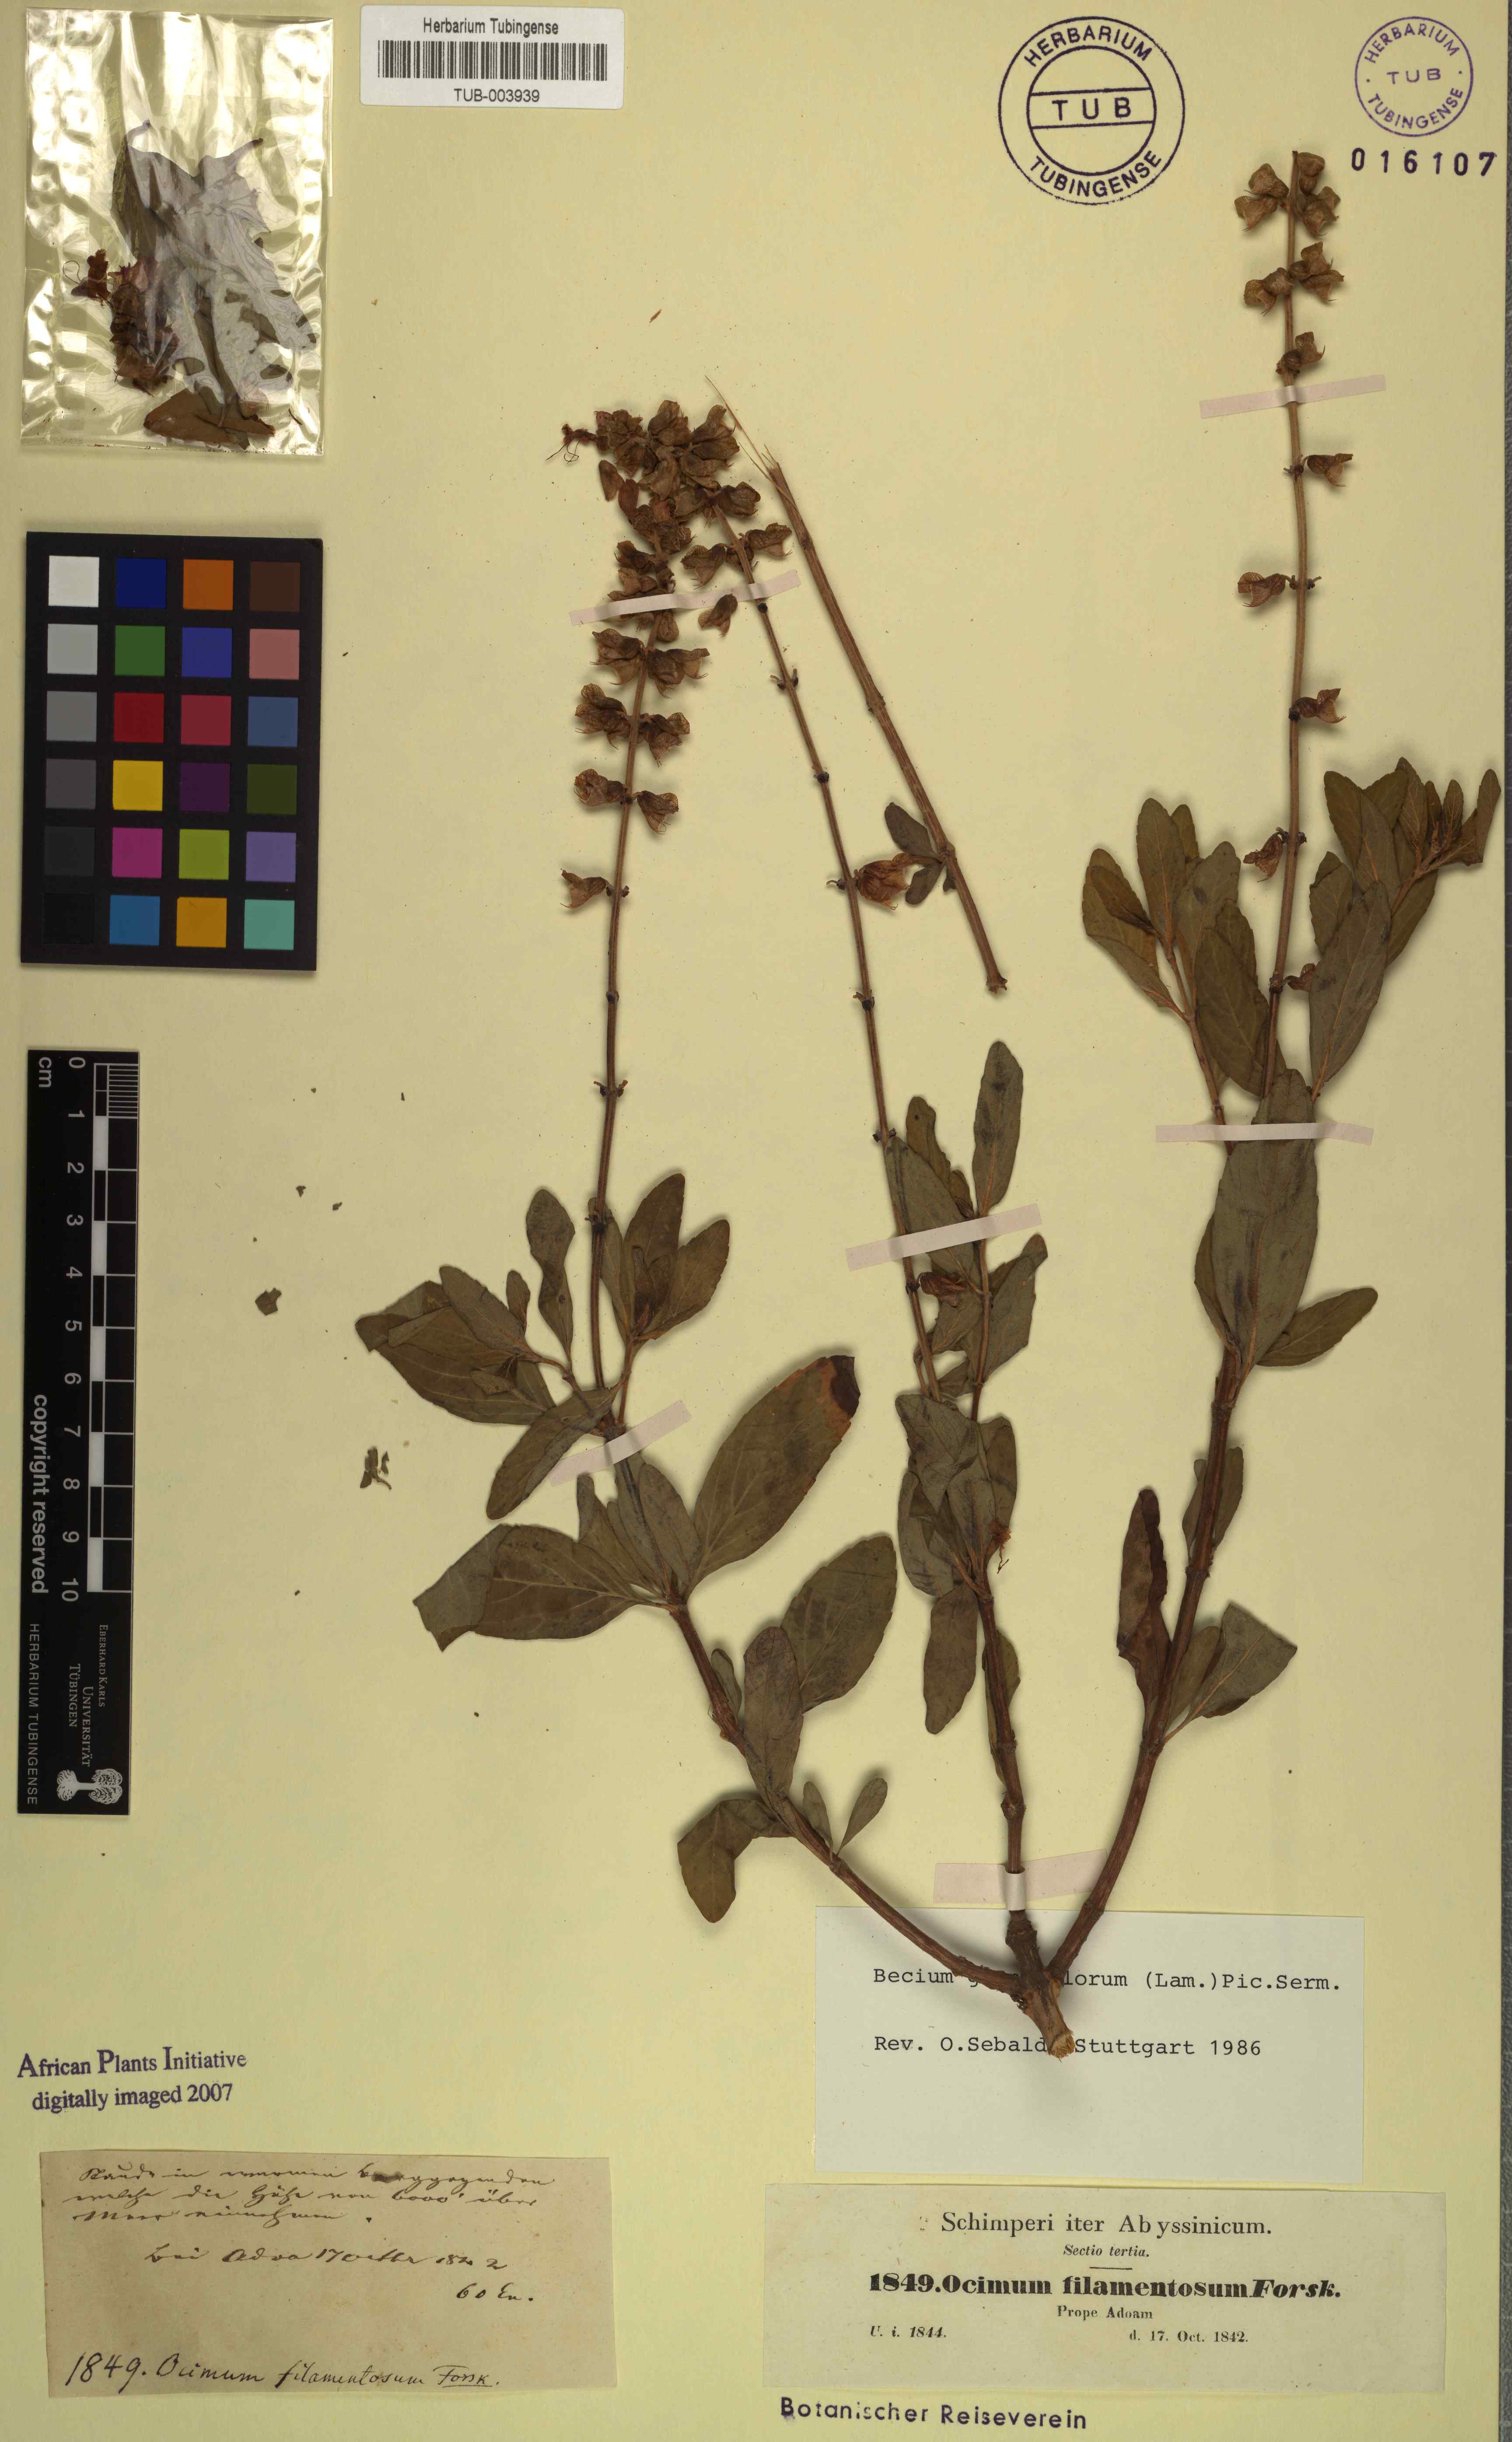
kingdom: Plantae
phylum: Tracheophyta
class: Magnoliopsida
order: Lamiales
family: Lamiaceae
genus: Ocimum
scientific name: Ocimum filamentosum
